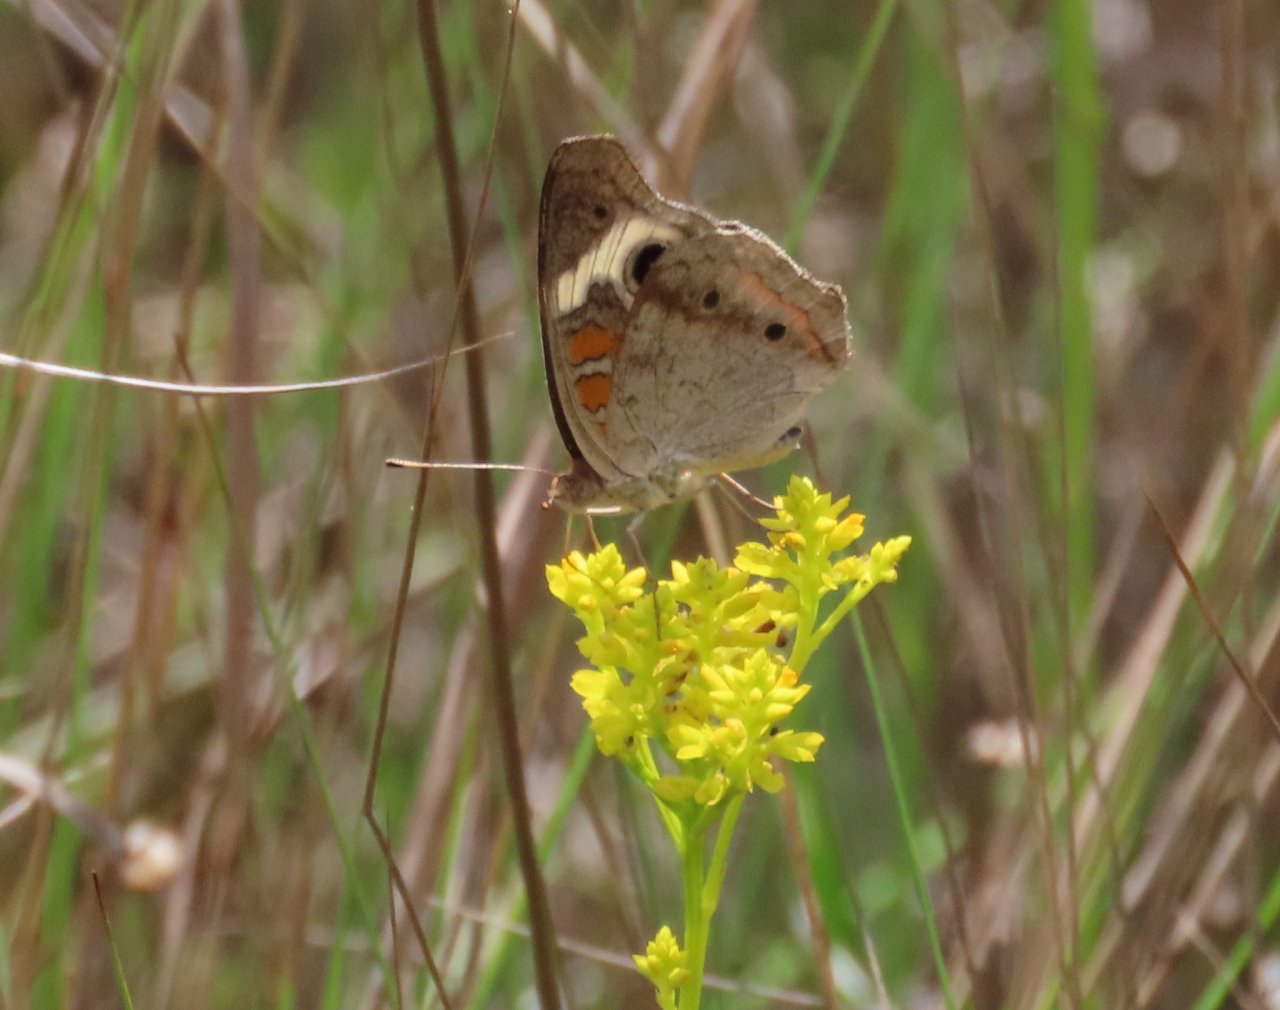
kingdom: Animalia
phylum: Arthropoda
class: Insecta
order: Lepidoptera
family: Nymphalidae
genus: Junonia
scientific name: Junonia coenia
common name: Common Buckeye
